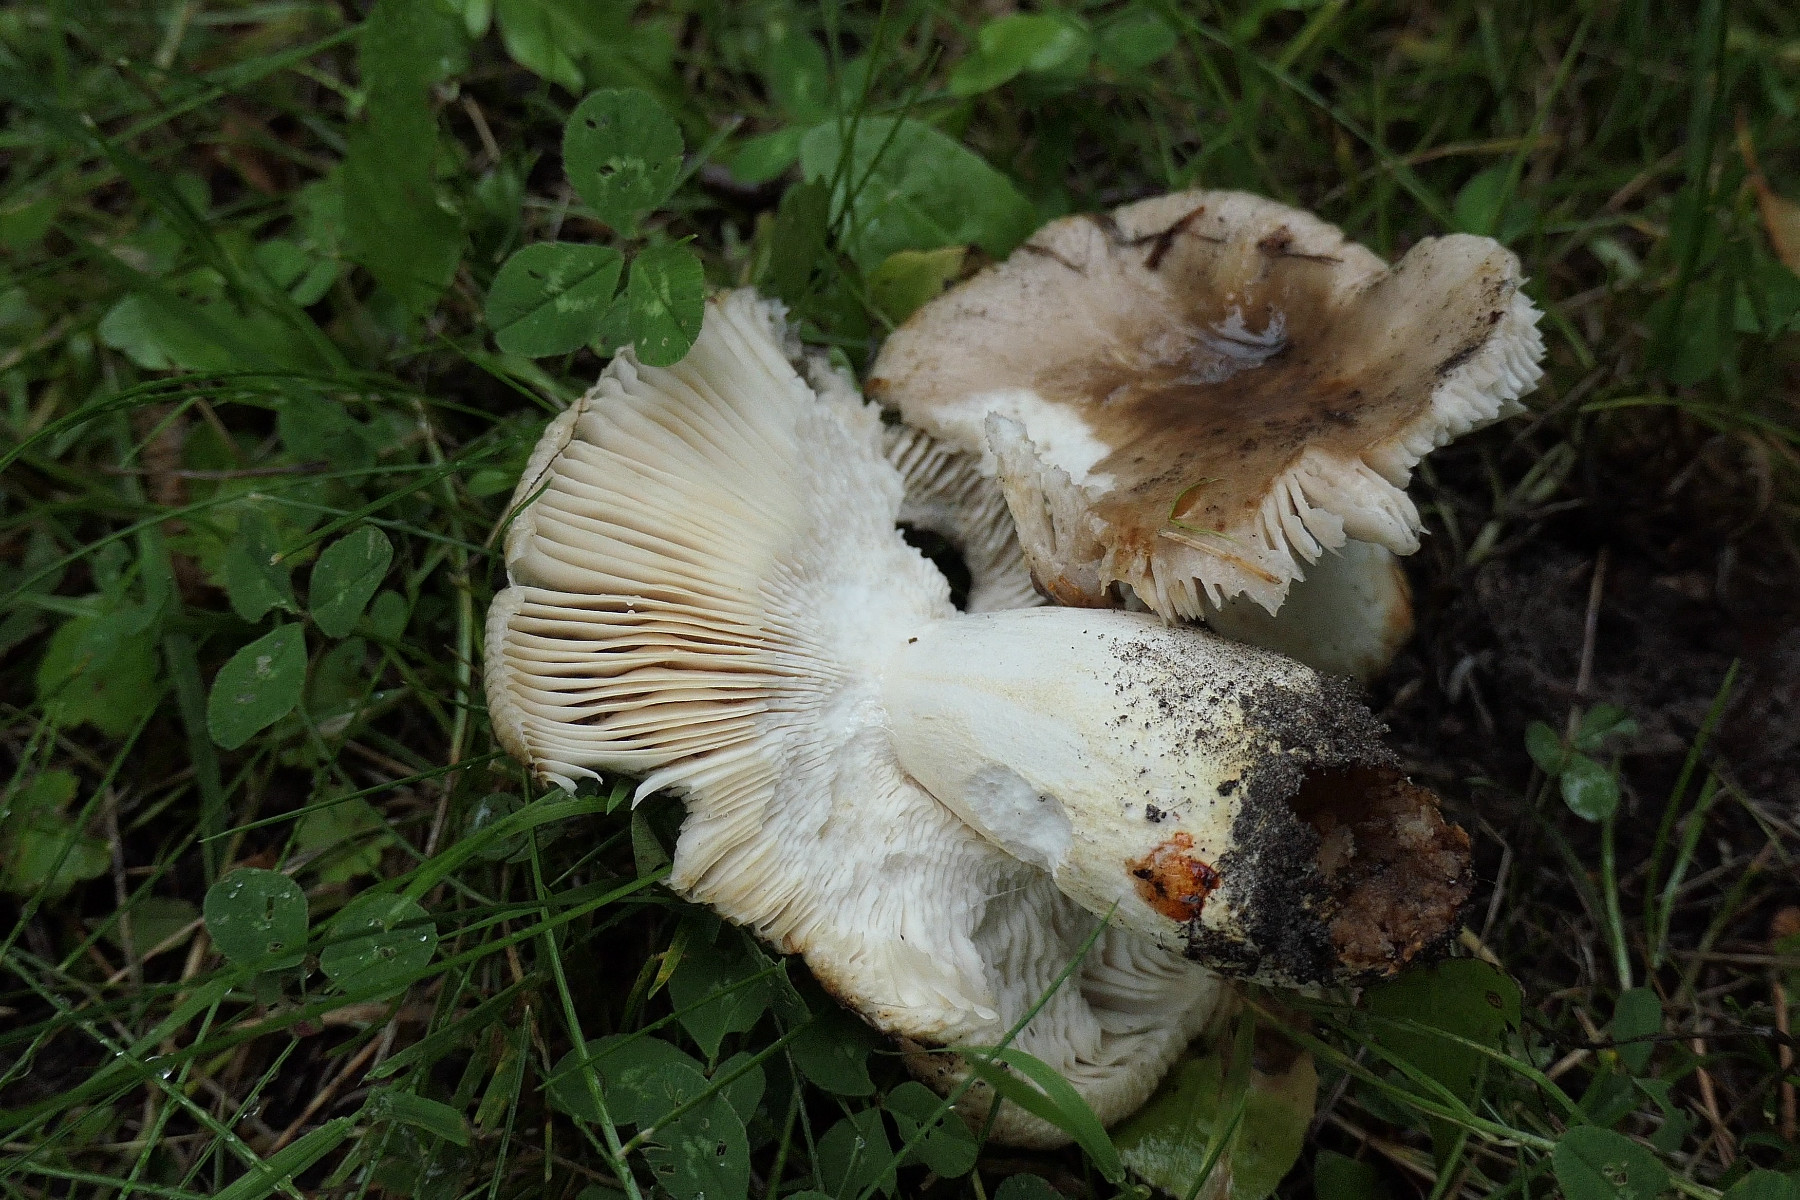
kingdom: Fungi
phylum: Basidiomycota
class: Agaricomycetes
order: Russulales
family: Russulaceae
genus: Russula
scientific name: Russula insignis
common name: gulfodet kam-skørhat
